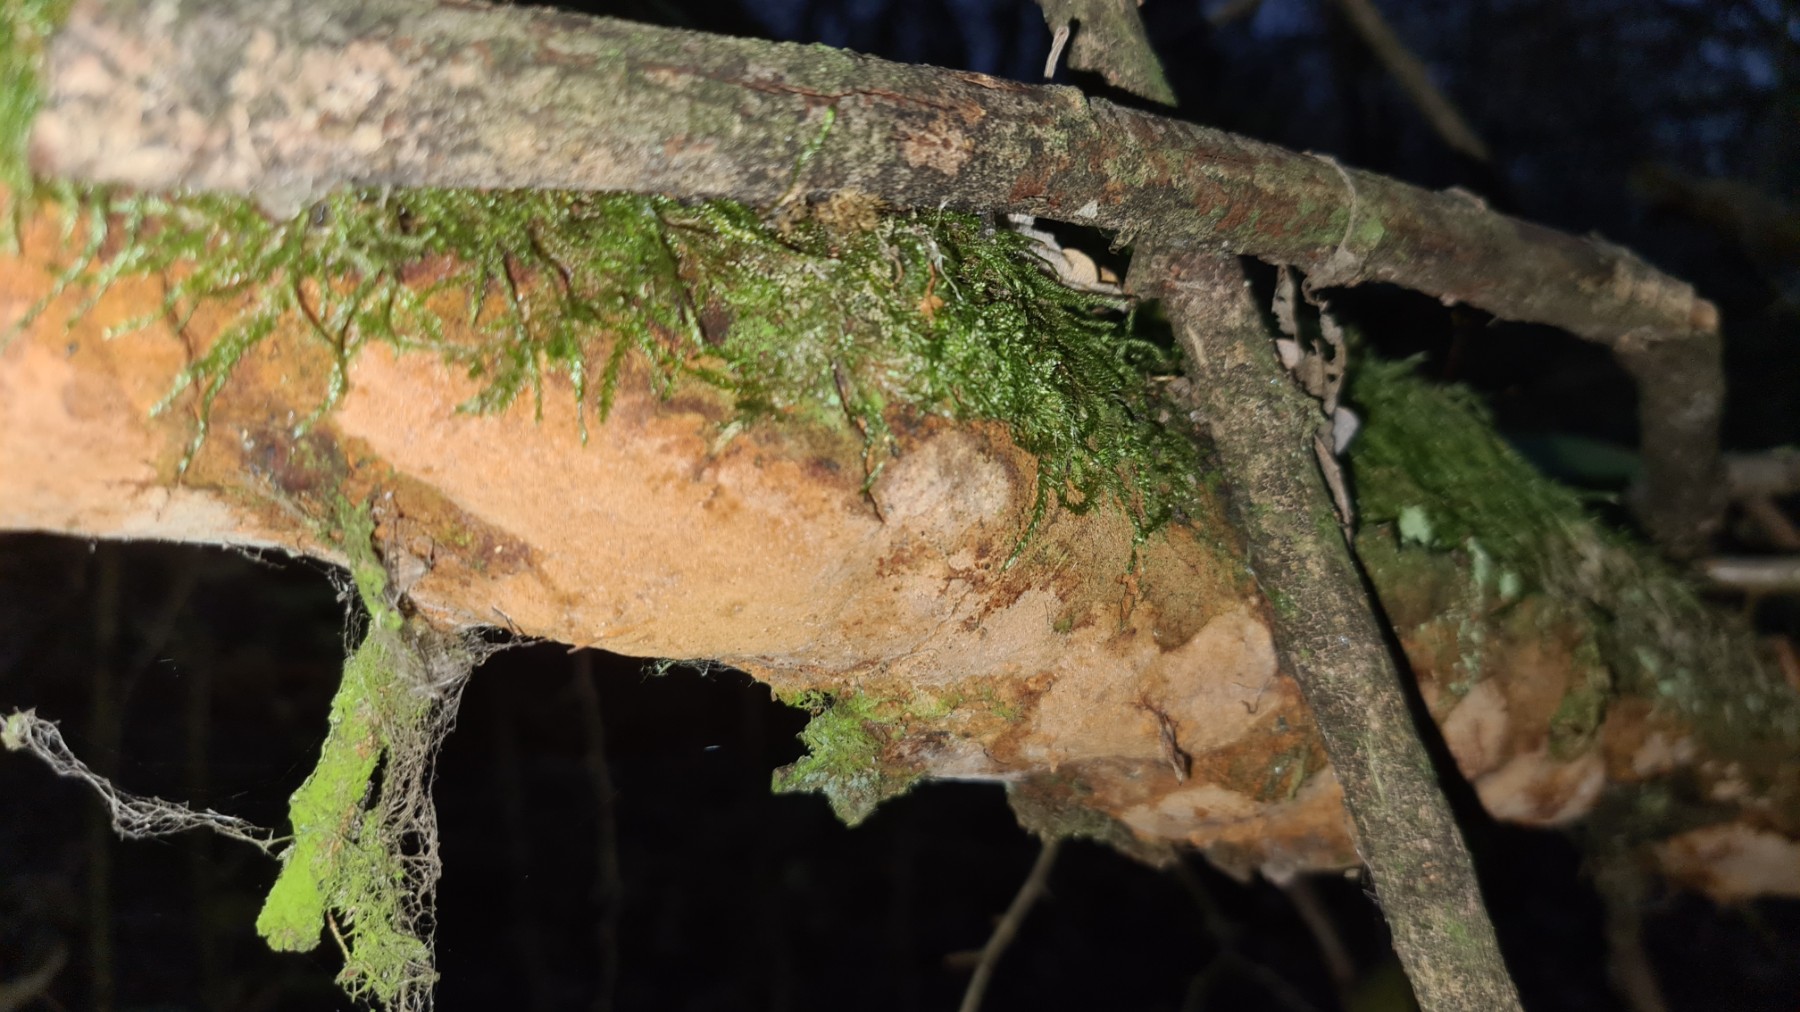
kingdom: Fungi
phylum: Basidiomycota
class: Agaricomycetes
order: Hymenochaetales
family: Hymenochaetaceae
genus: Fuscoporia
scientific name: Fuscoporia ferrea
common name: skorpe-ildporesvamp
